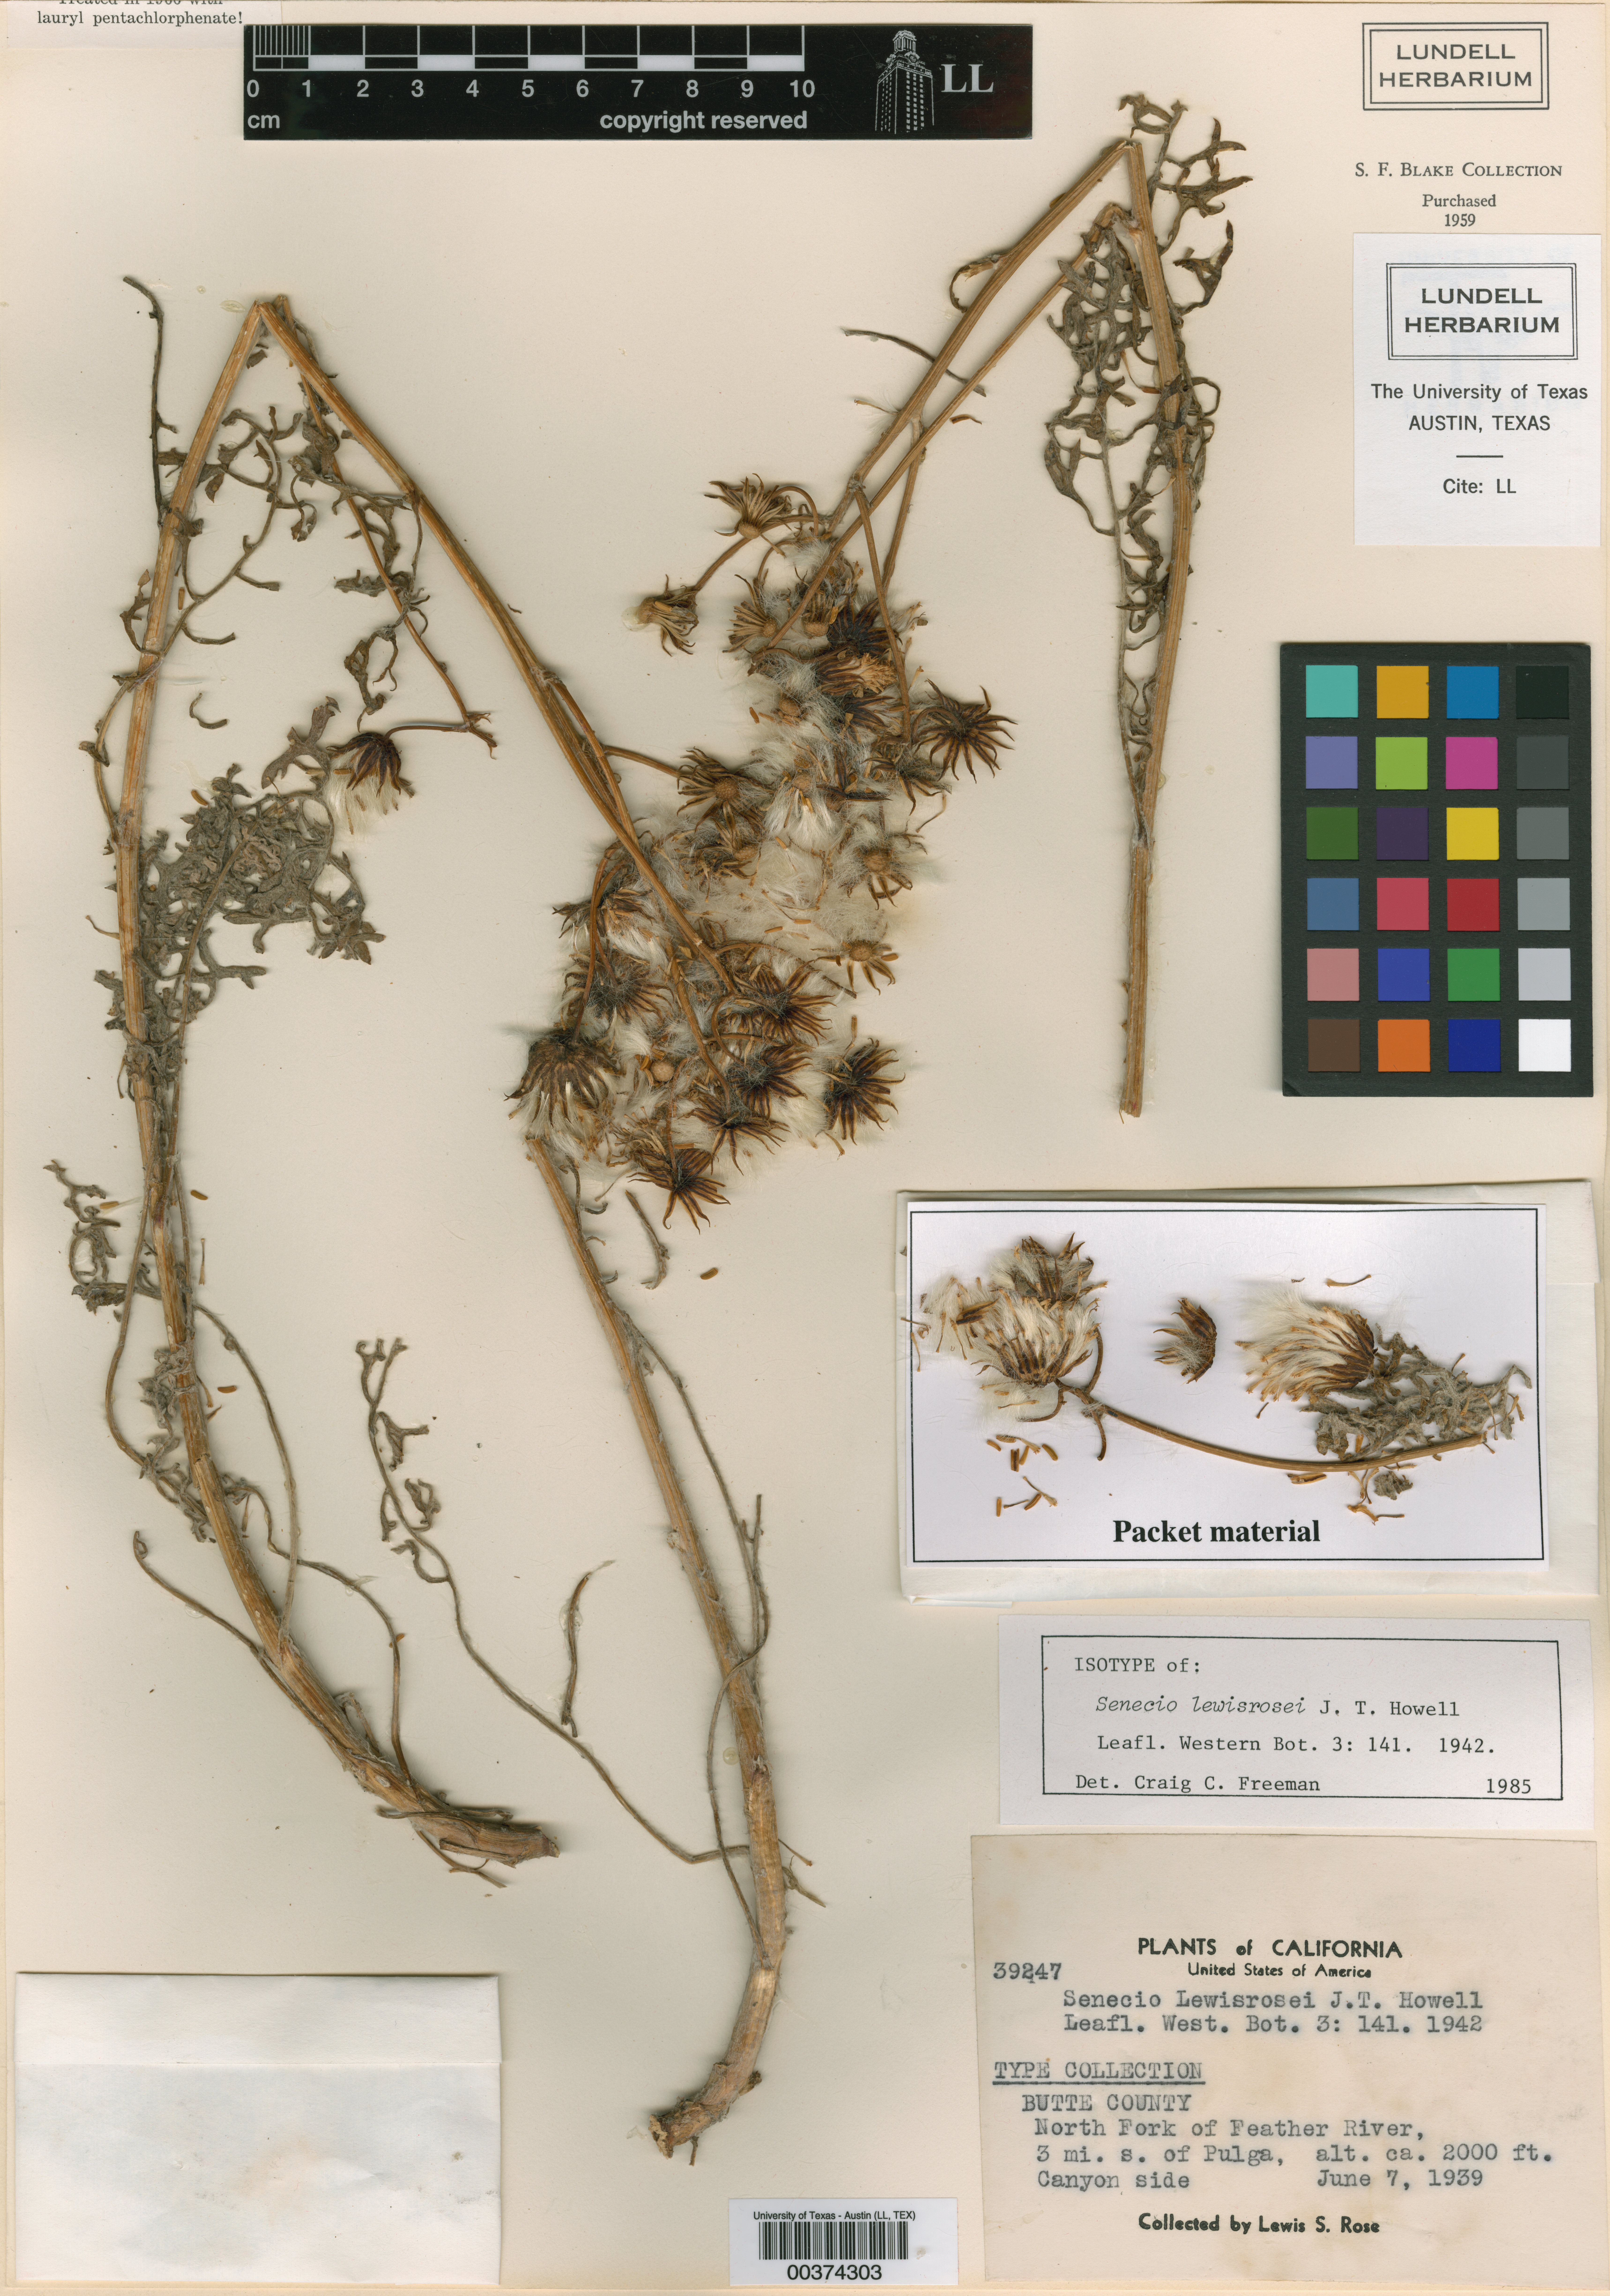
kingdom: Plantae
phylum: Tracheophyta
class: Magnoliopsida
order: Asterales
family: Asteraceae
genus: Packera
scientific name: Packera eurycephala
